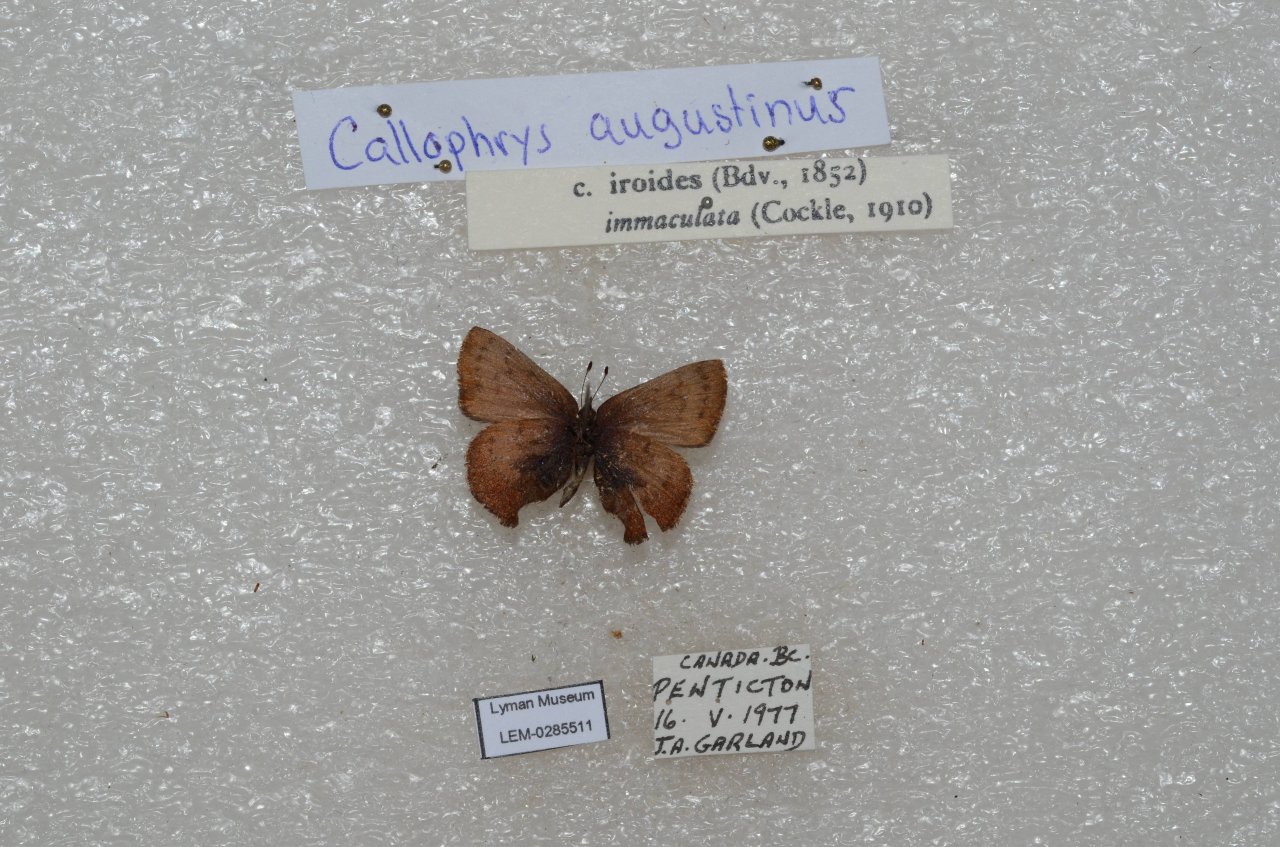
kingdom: Animalia
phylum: Arthropoda
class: Insecta
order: Lepidoptera
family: Lycaenidae
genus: Incisalia
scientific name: Incisalia irioides
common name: Brown Elfin
